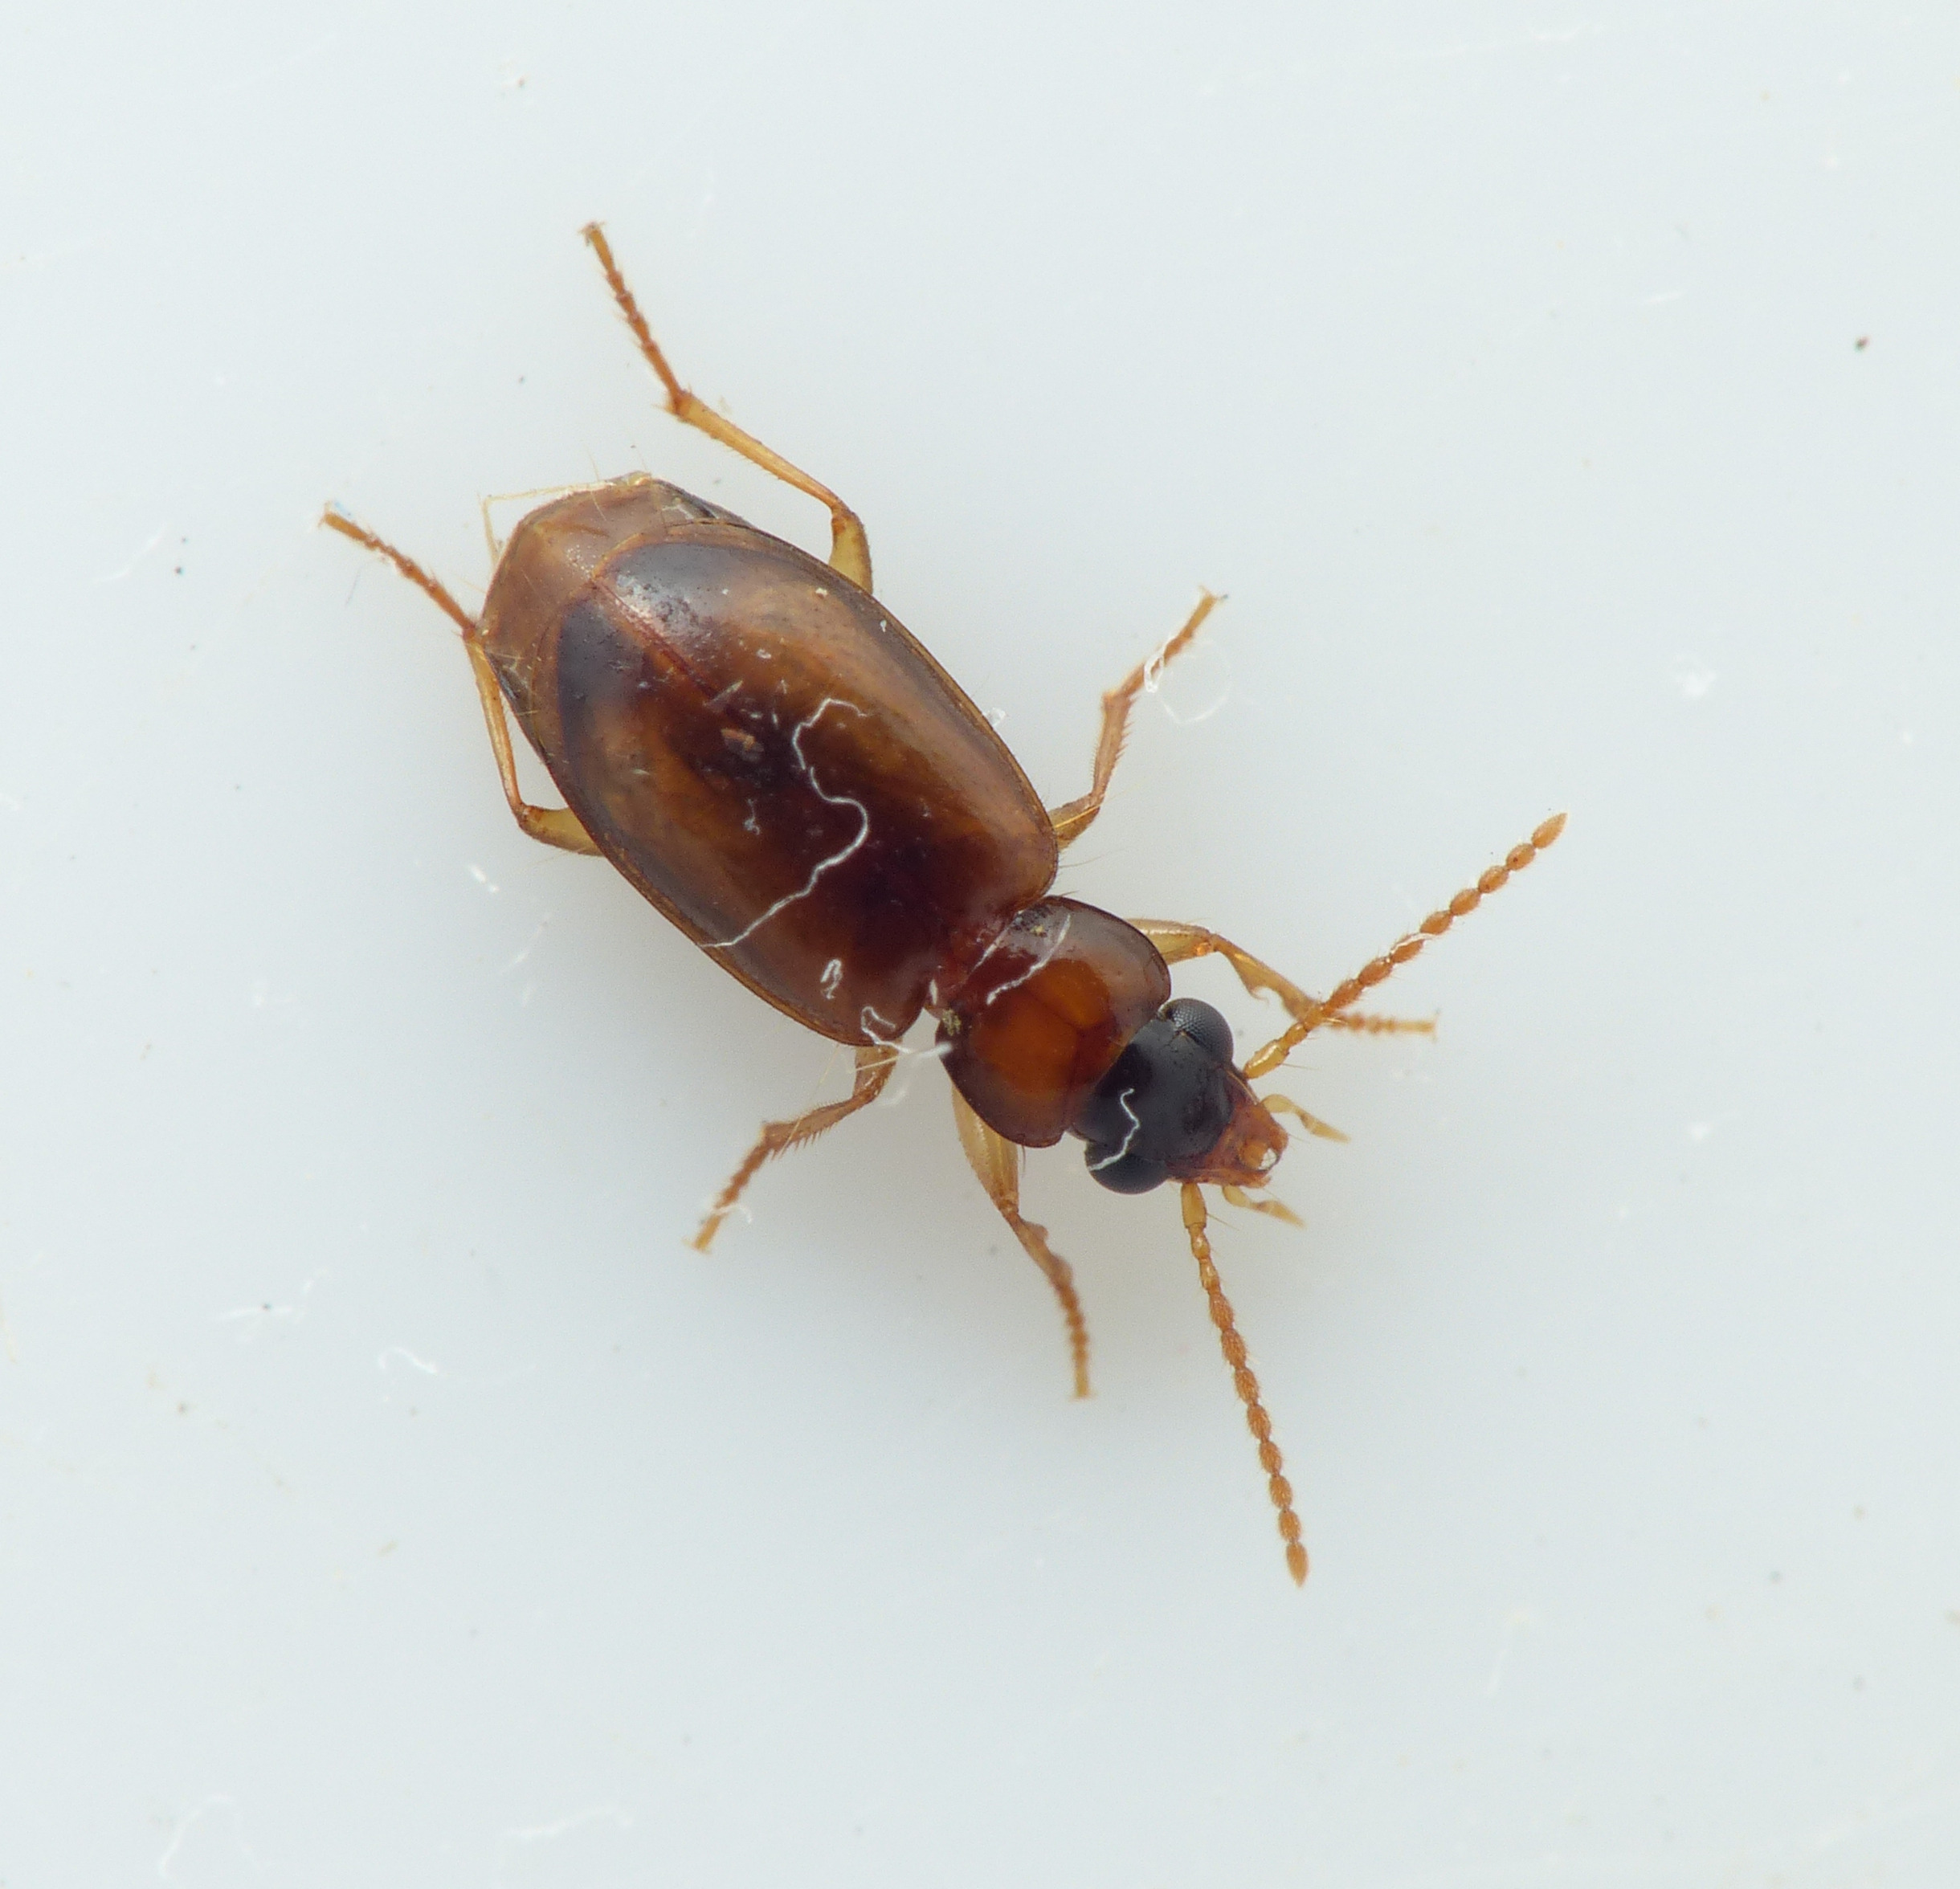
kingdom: Animalia
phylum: Arthropoda
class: Insecta
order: Coleoptera
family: Carabidae
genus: Perigona
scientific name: Perigona nigriceps
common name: Kompostløber
